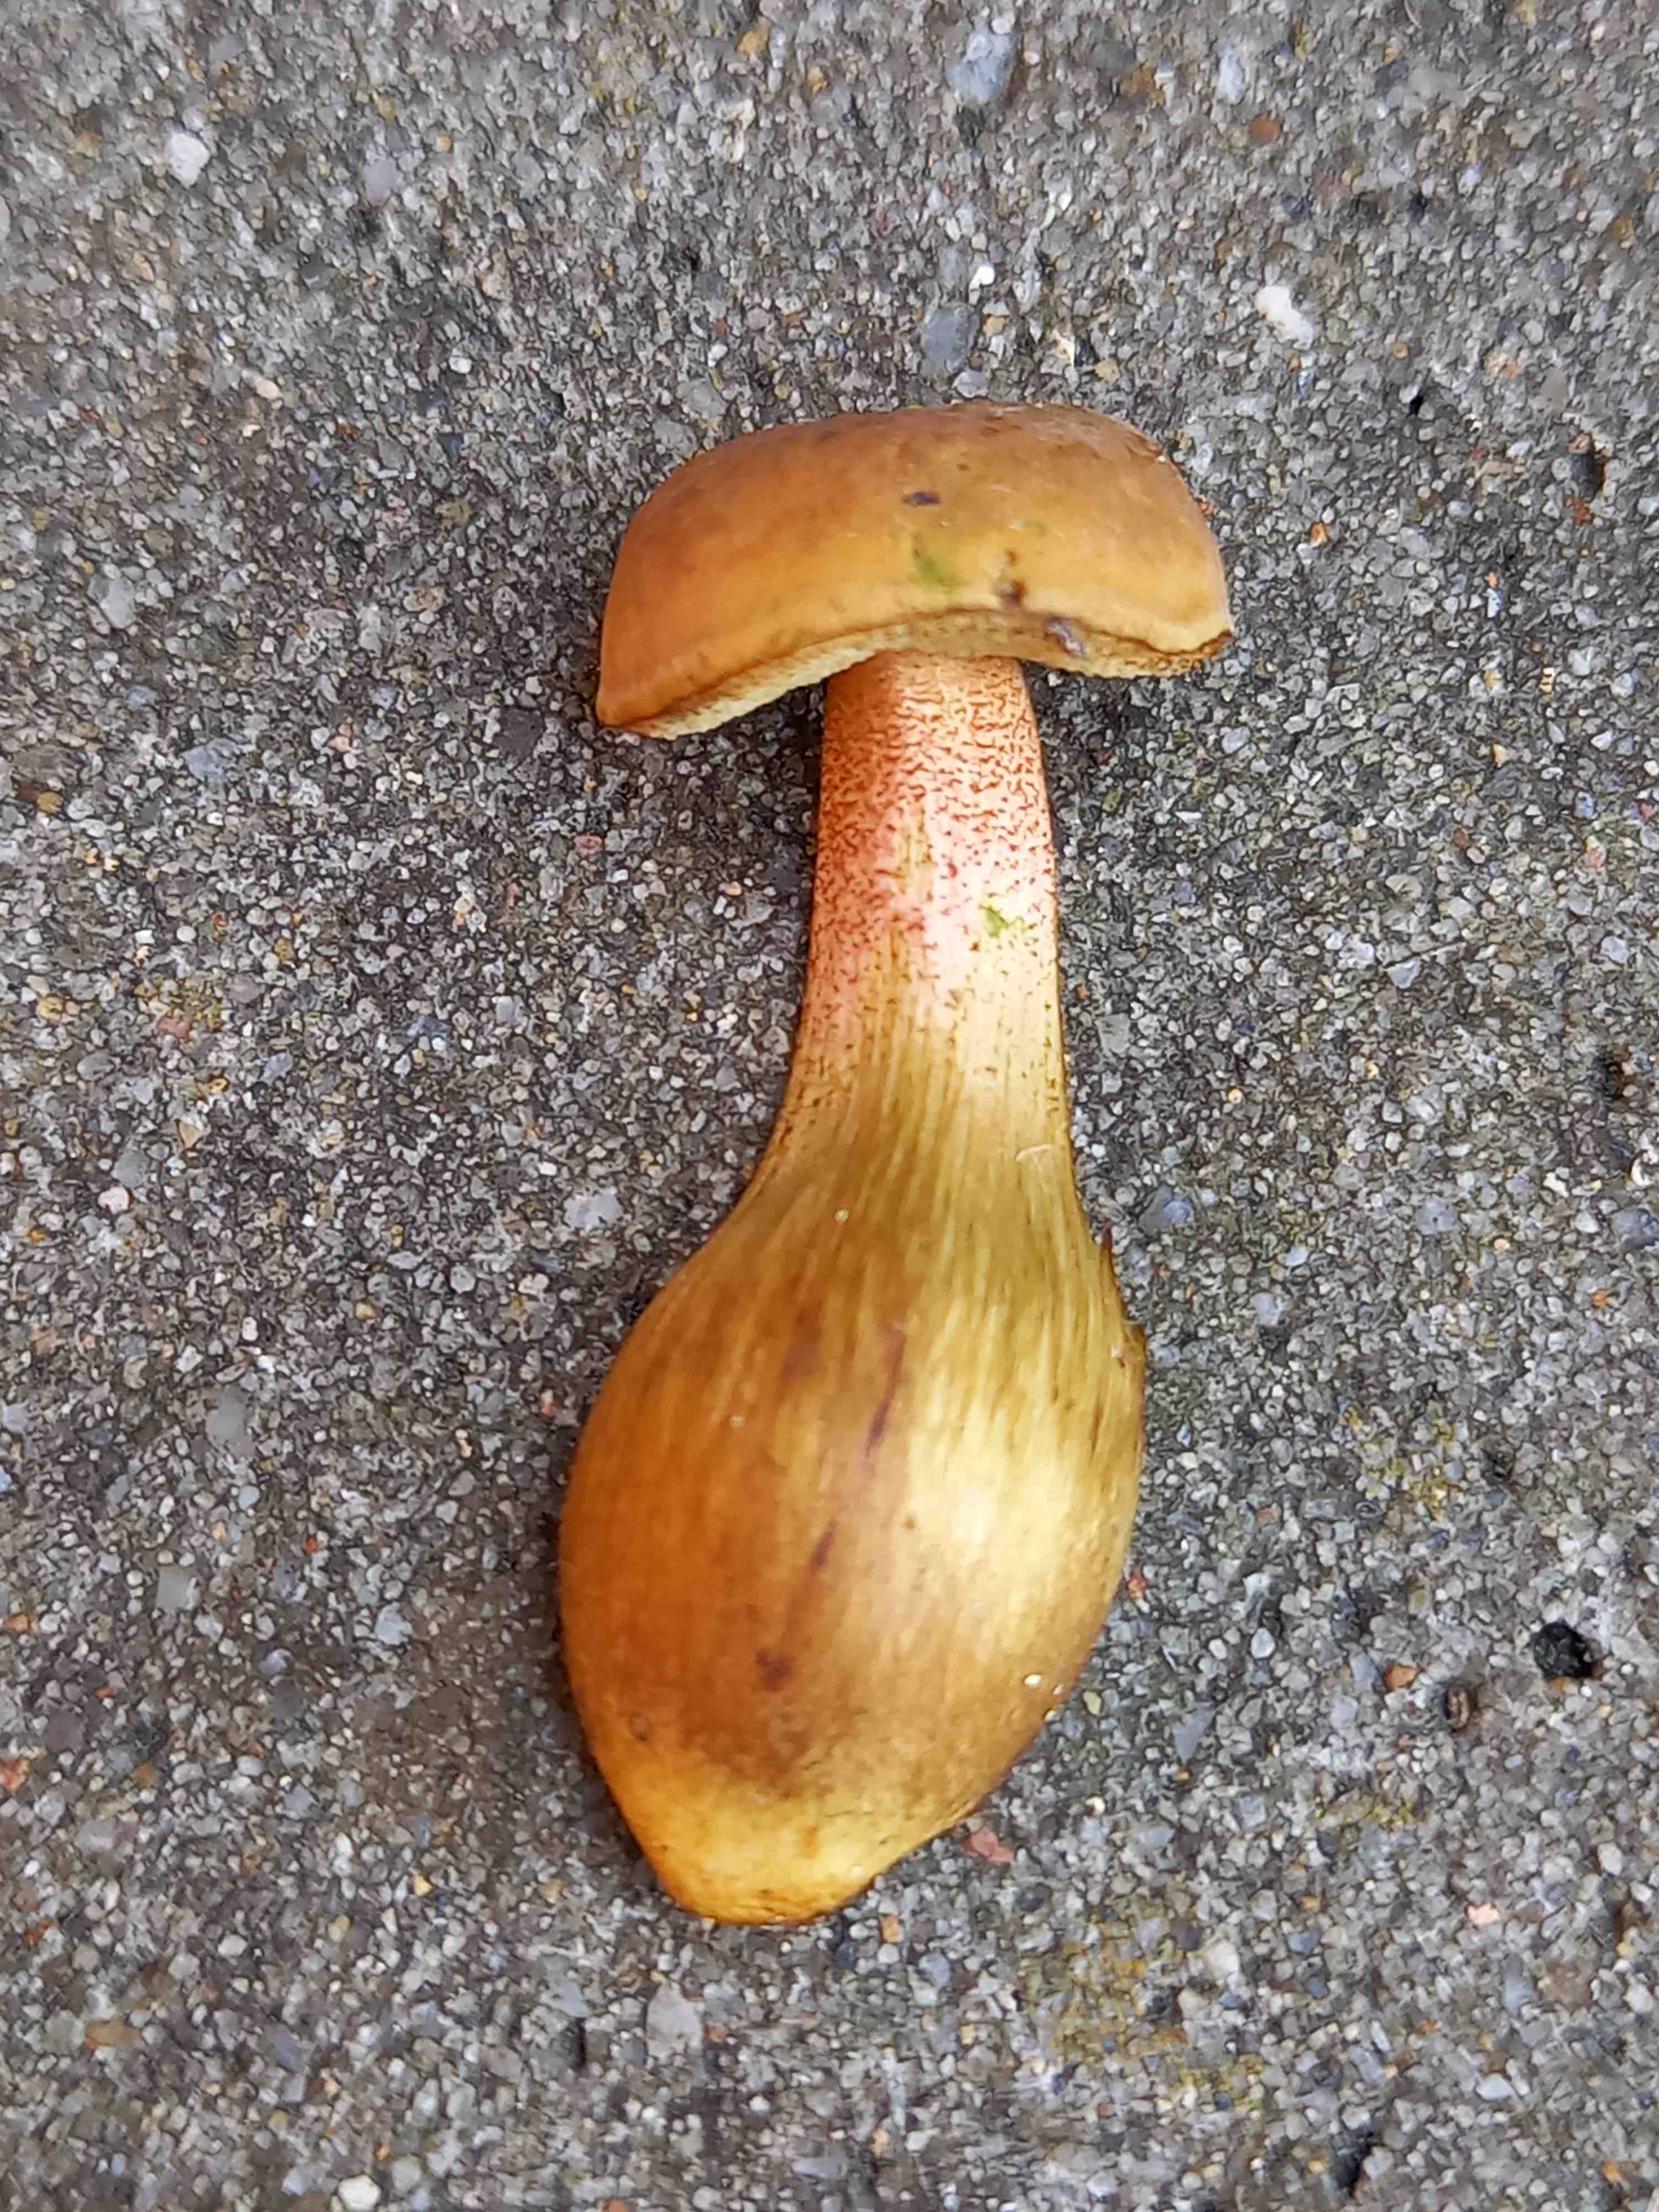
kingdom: Fungi
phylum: Basidiomycota
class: Agaricomycetes
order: Boletales
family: Boletaceae
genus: Hortiboletus
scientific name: Hortiboletus bubalinus
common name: aurora-rørhat
